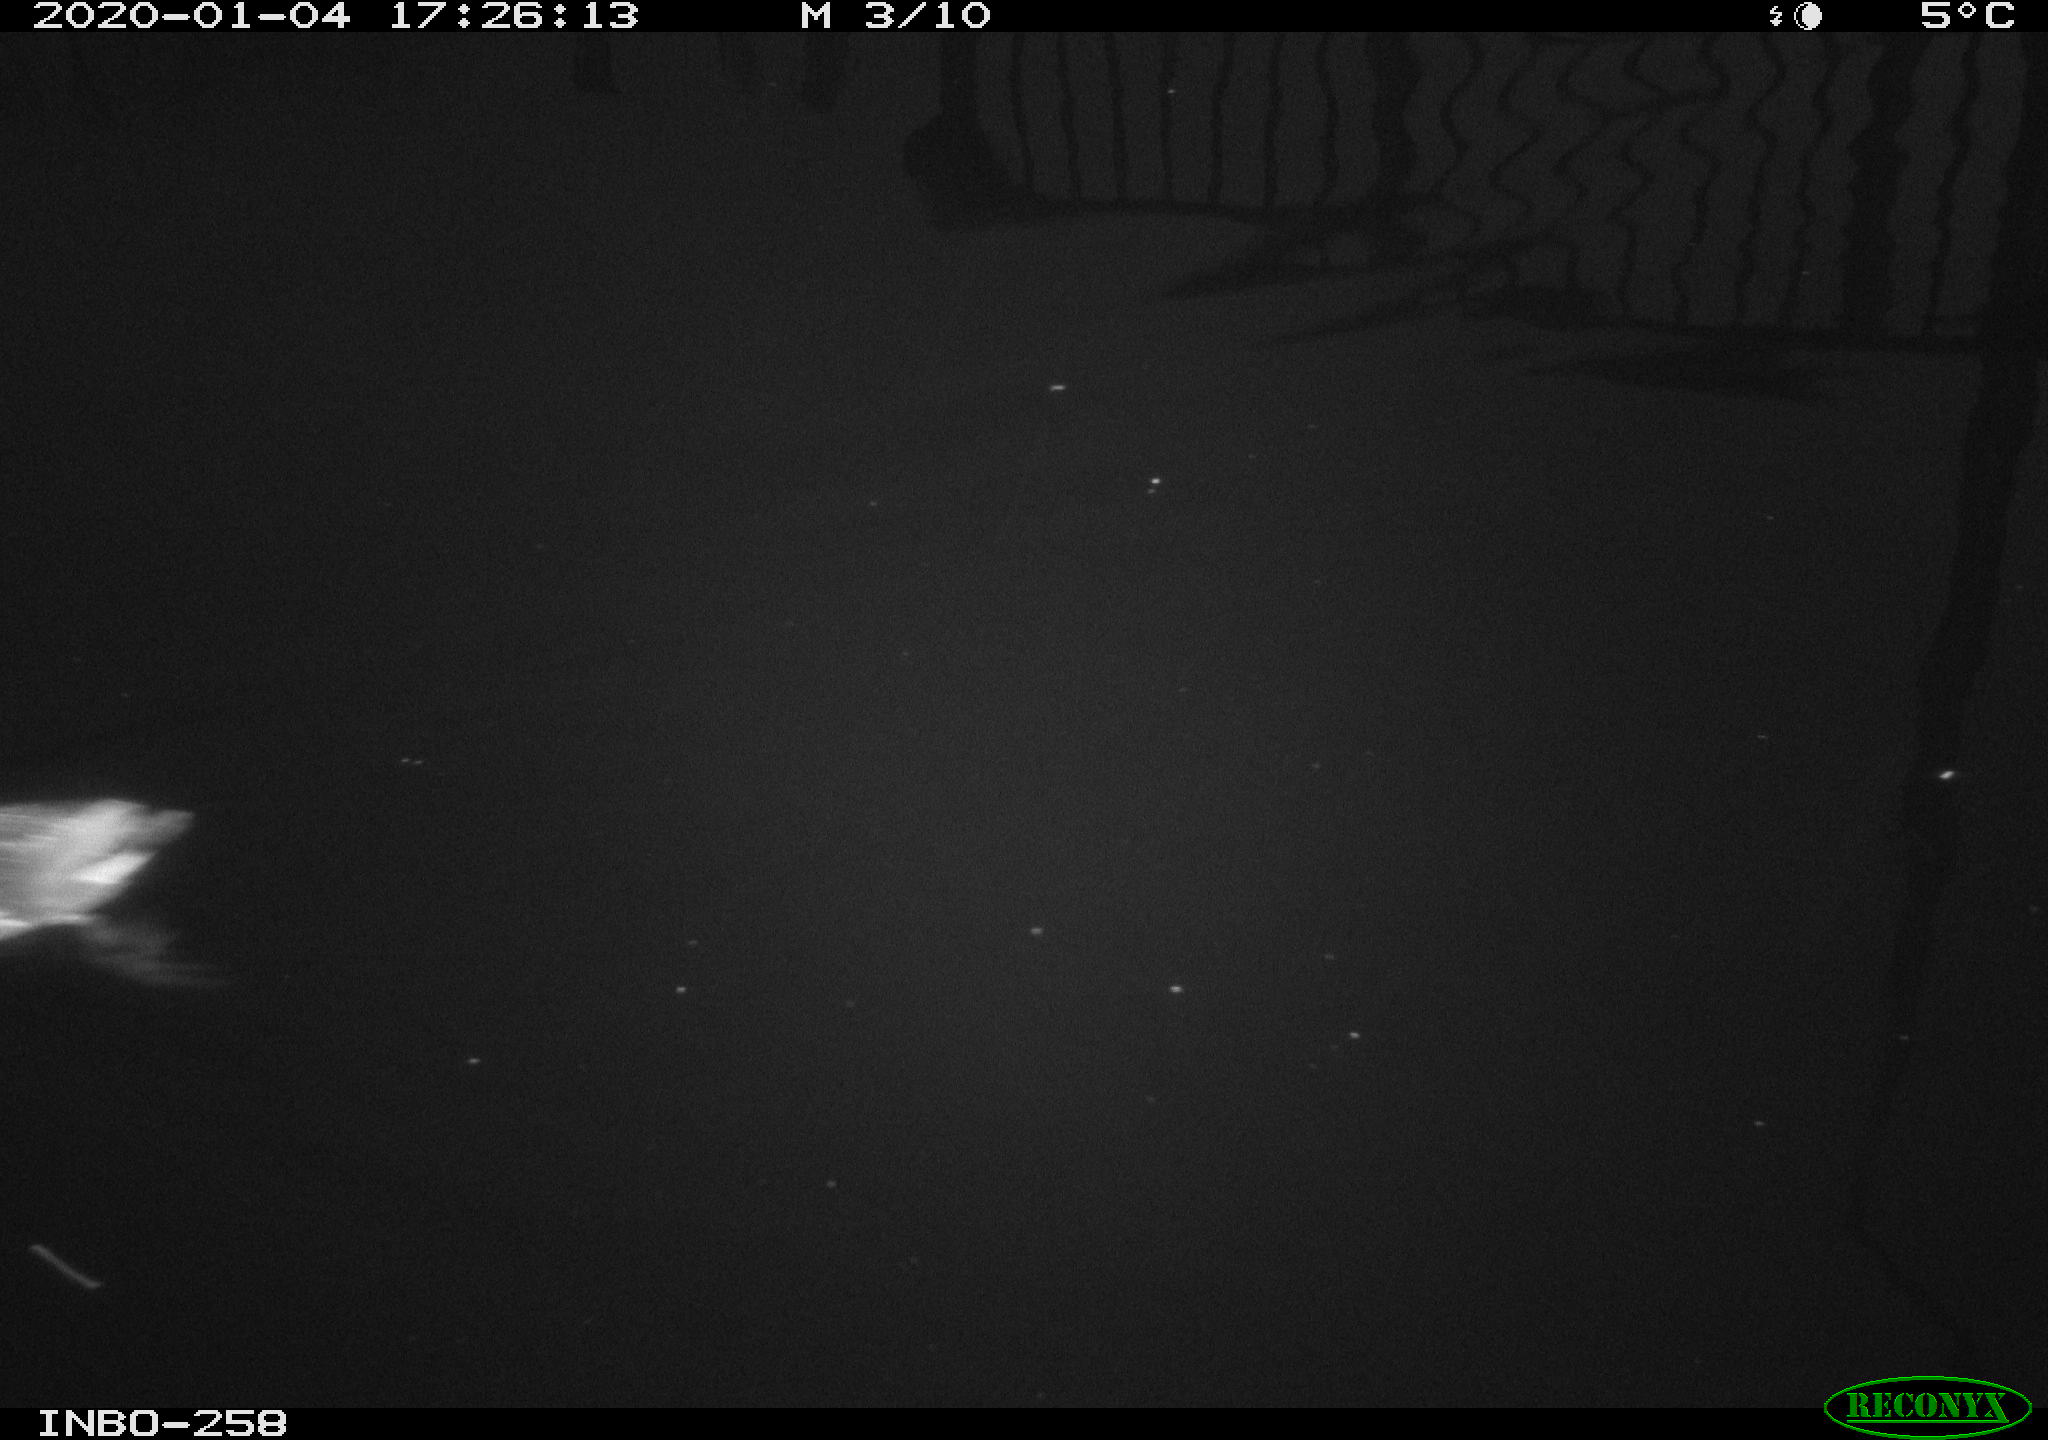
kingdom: Animalia
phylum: Chordata
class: Aves
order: Gruiformes
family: Rallidae
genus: Gallinula
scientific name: Gallinula chloropus
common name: Common moorhen
